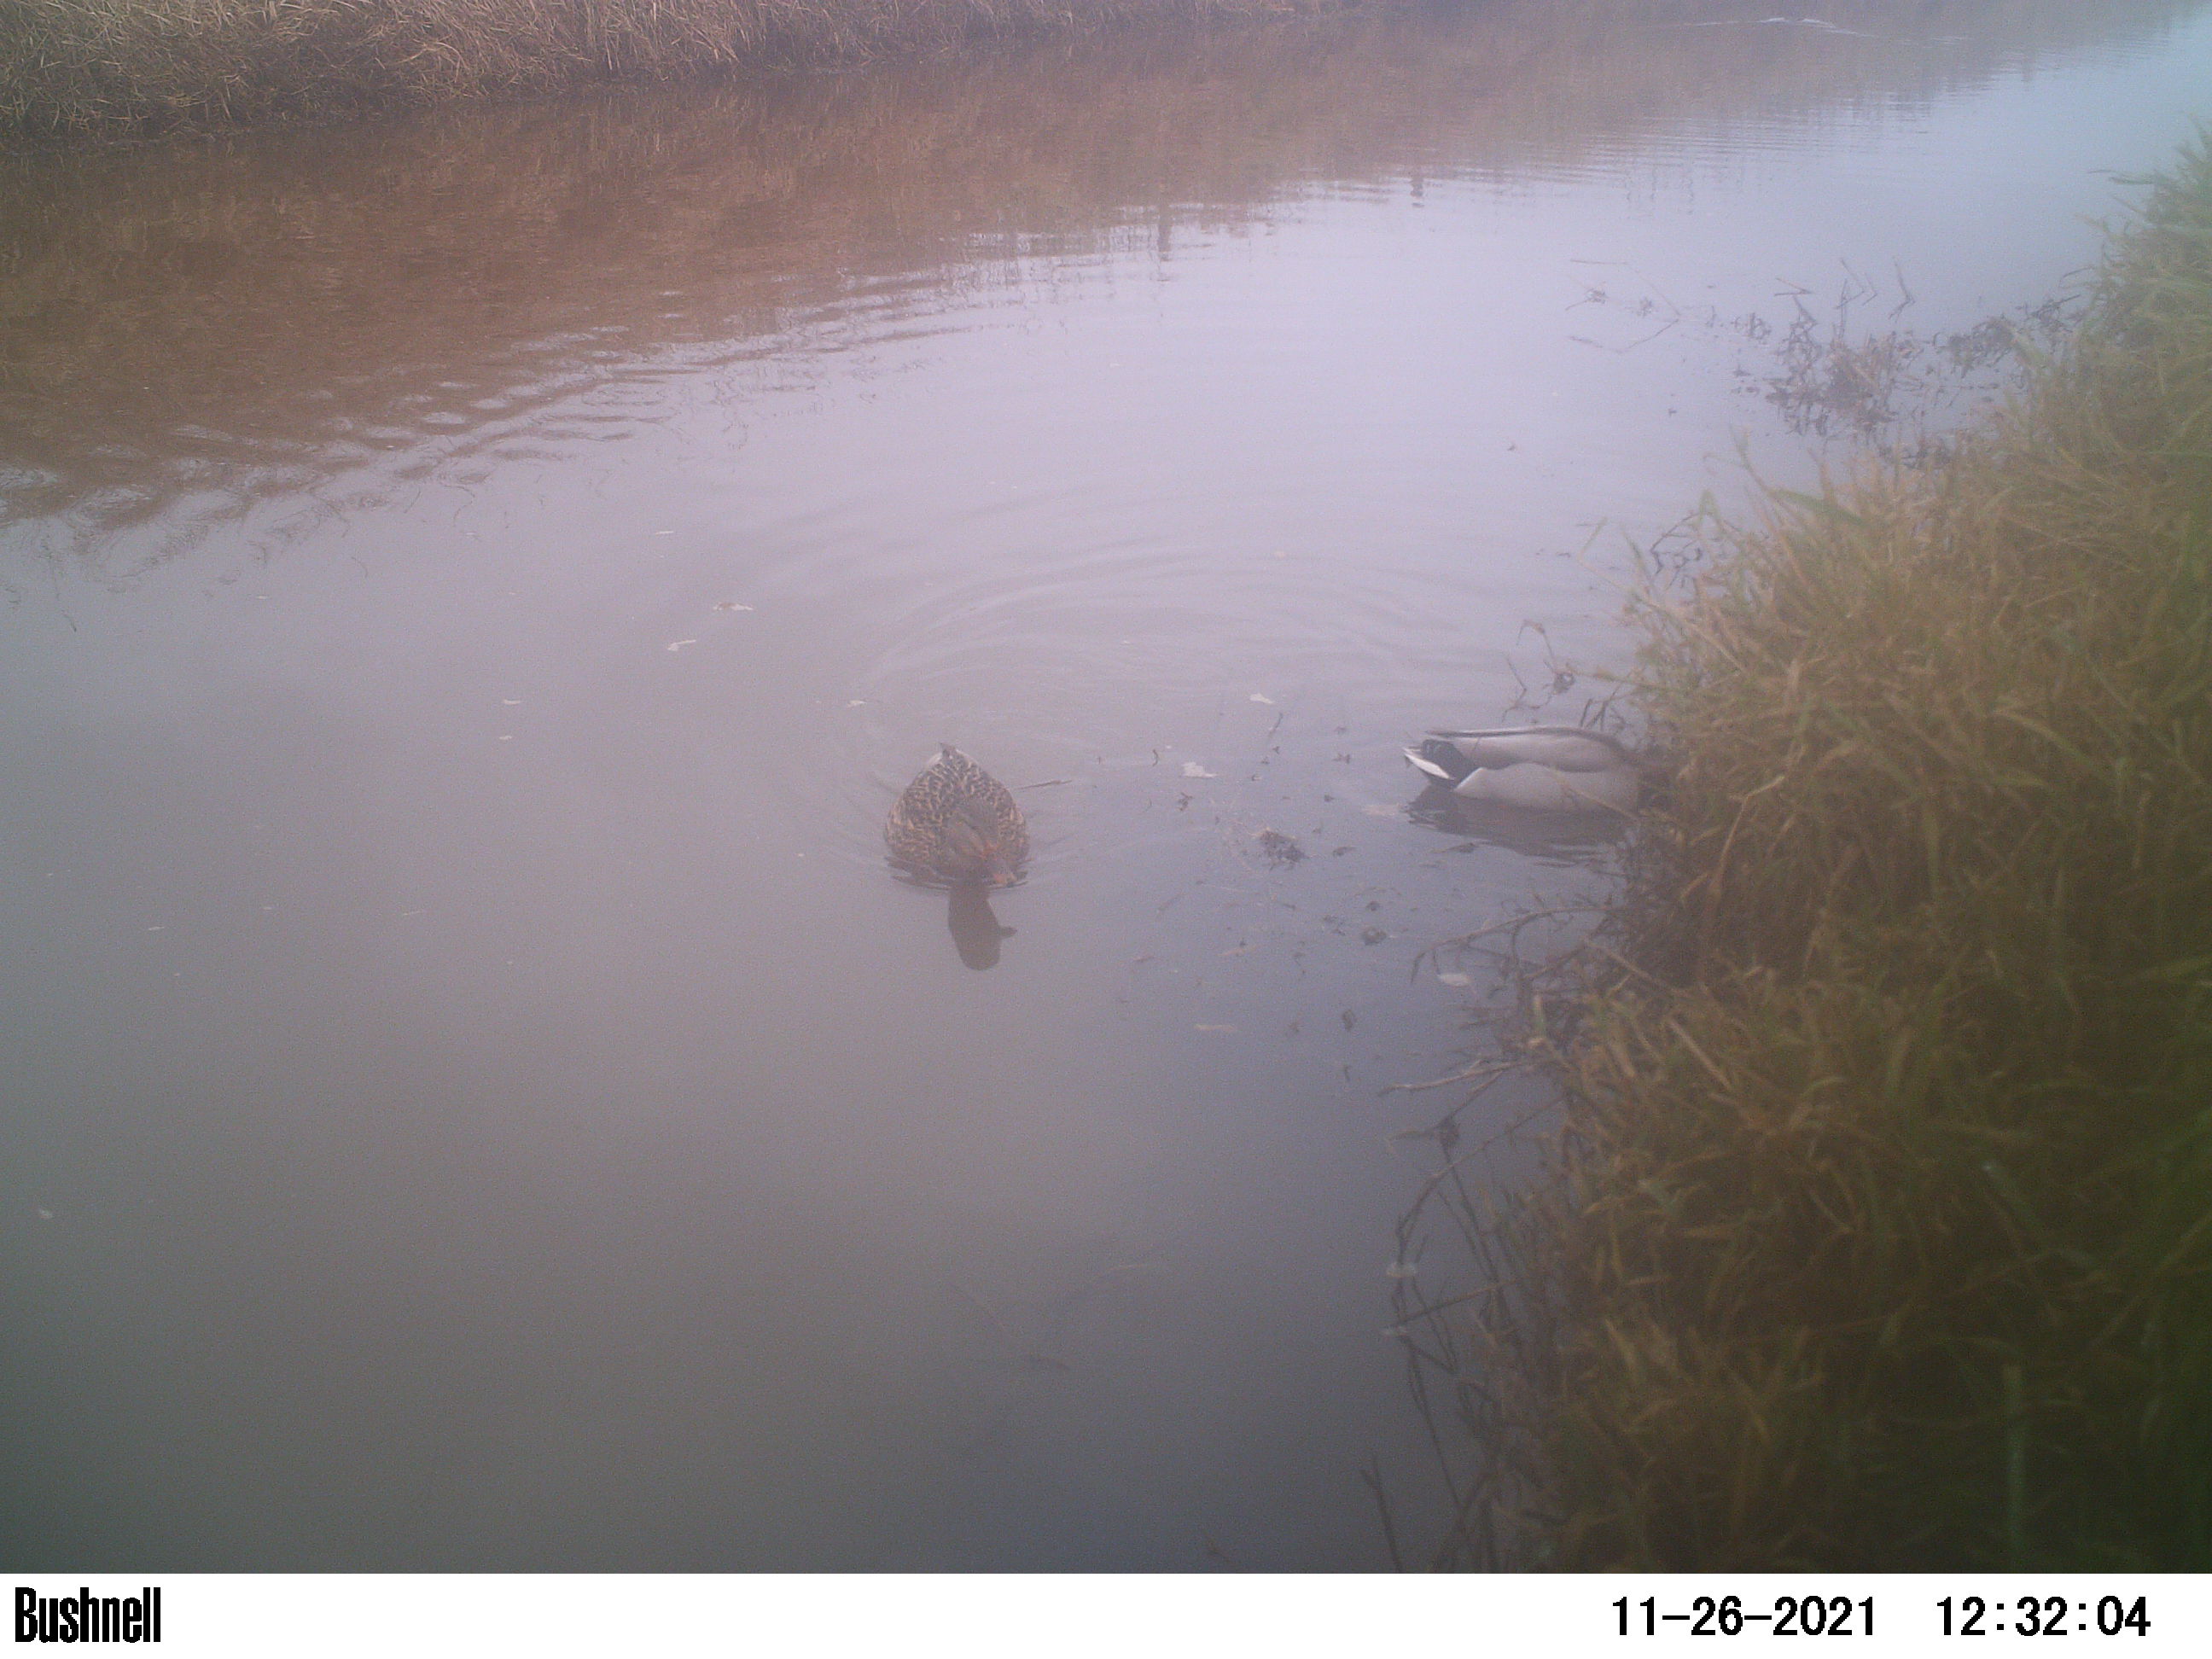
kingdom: Animalia
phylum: Chordata
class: Aves
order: Anseriformes
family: Anatidae
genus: Anas
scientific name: Anas
